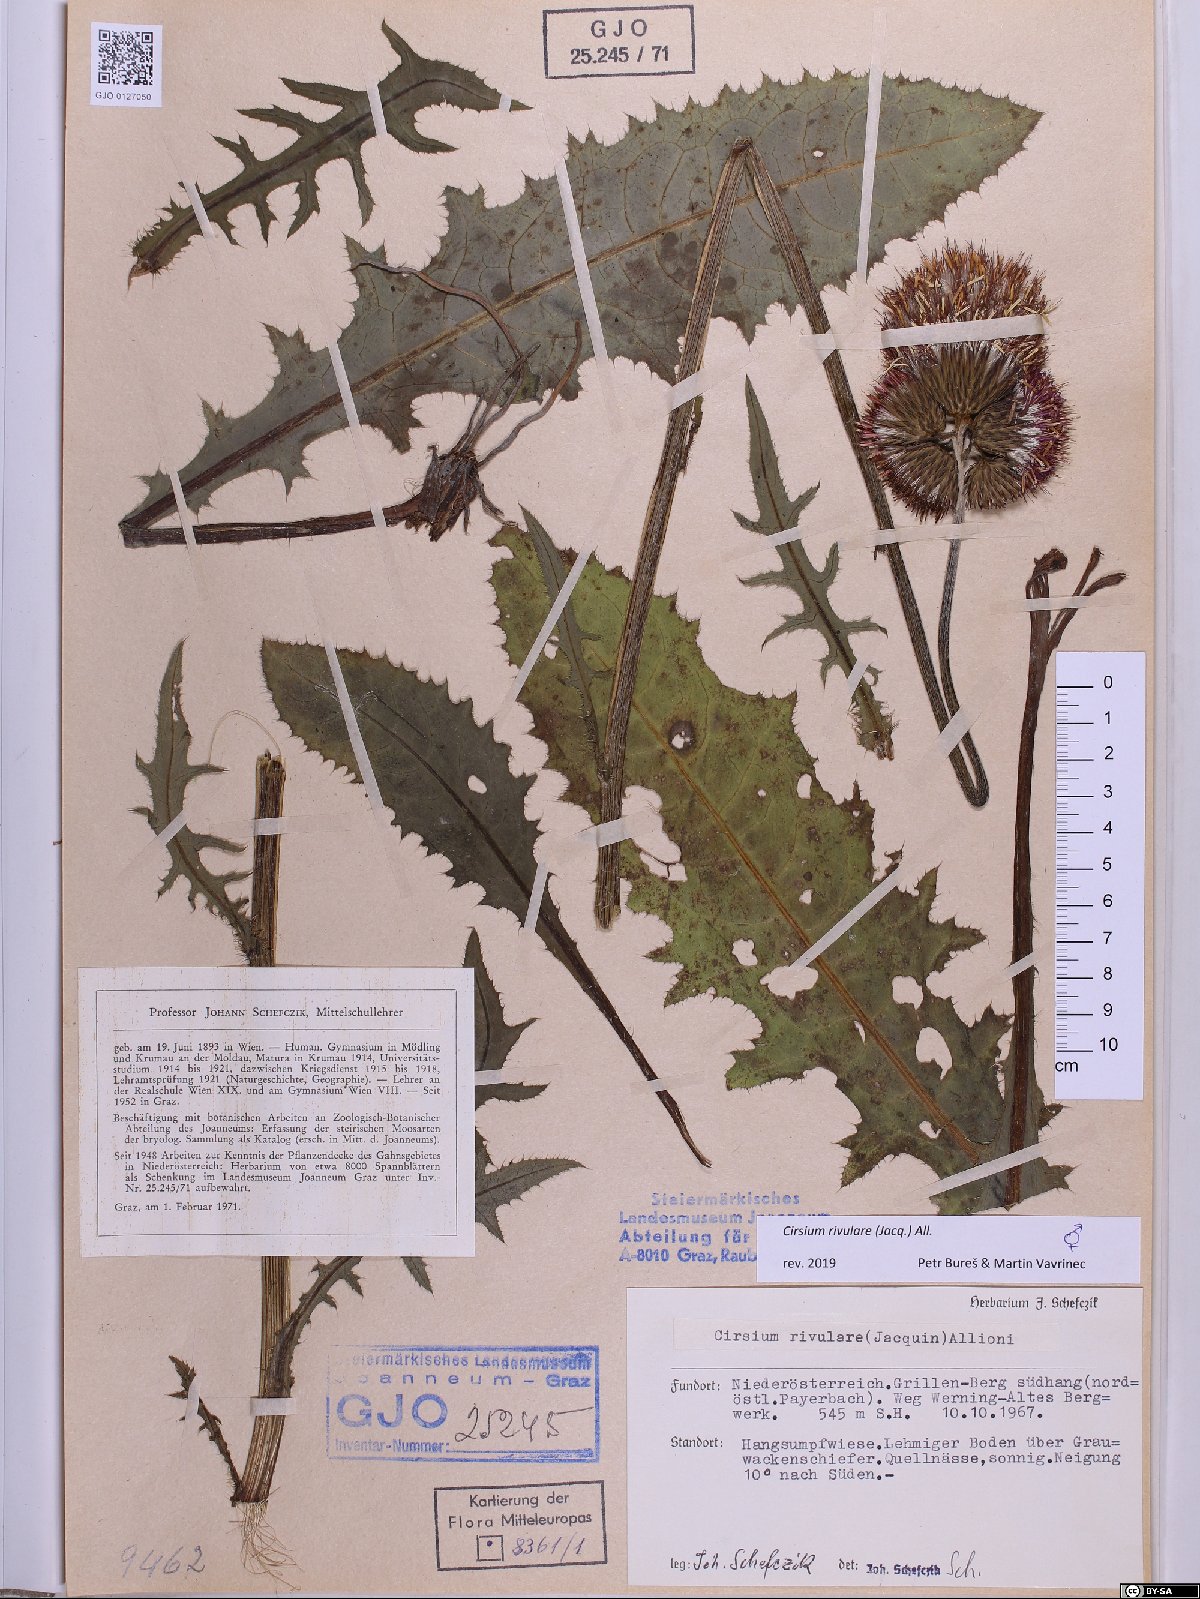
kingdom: Plantae
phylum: Tracheophyta
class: Magnoliopsida
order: Asterales
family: Asteraceae
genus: Cirsium
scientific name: Cirsium rivulare
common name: Brook thistle
